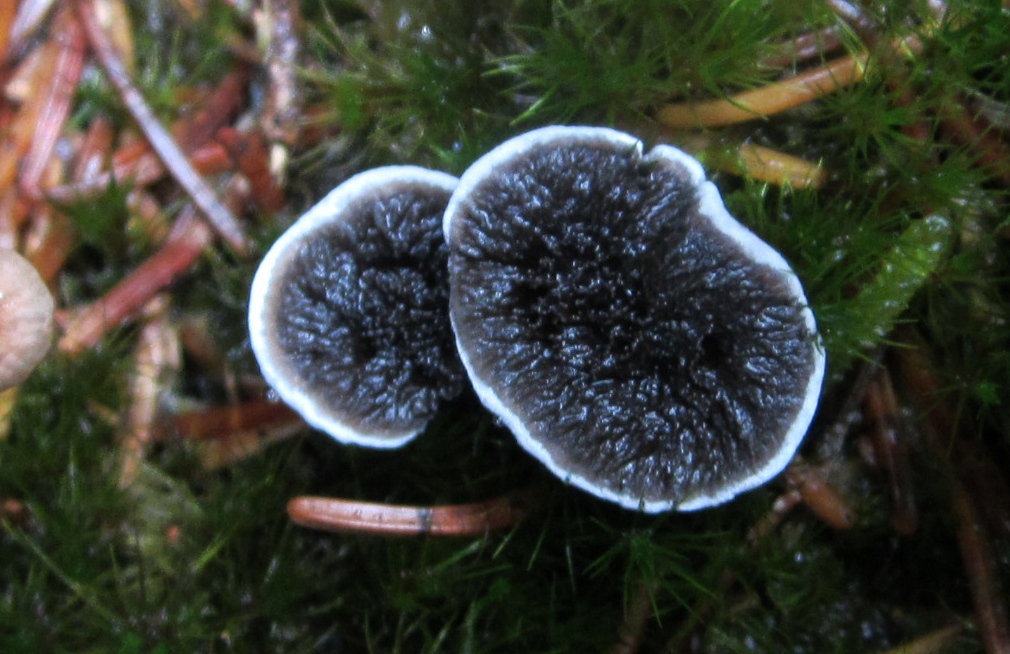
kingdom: Fungi
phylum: Basidiomycota
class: Agaricomycetes
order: Thelephorales
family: Thelephoraceae
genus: Phellodon
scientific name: Phellodon
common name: mørk duftpigsvamp
